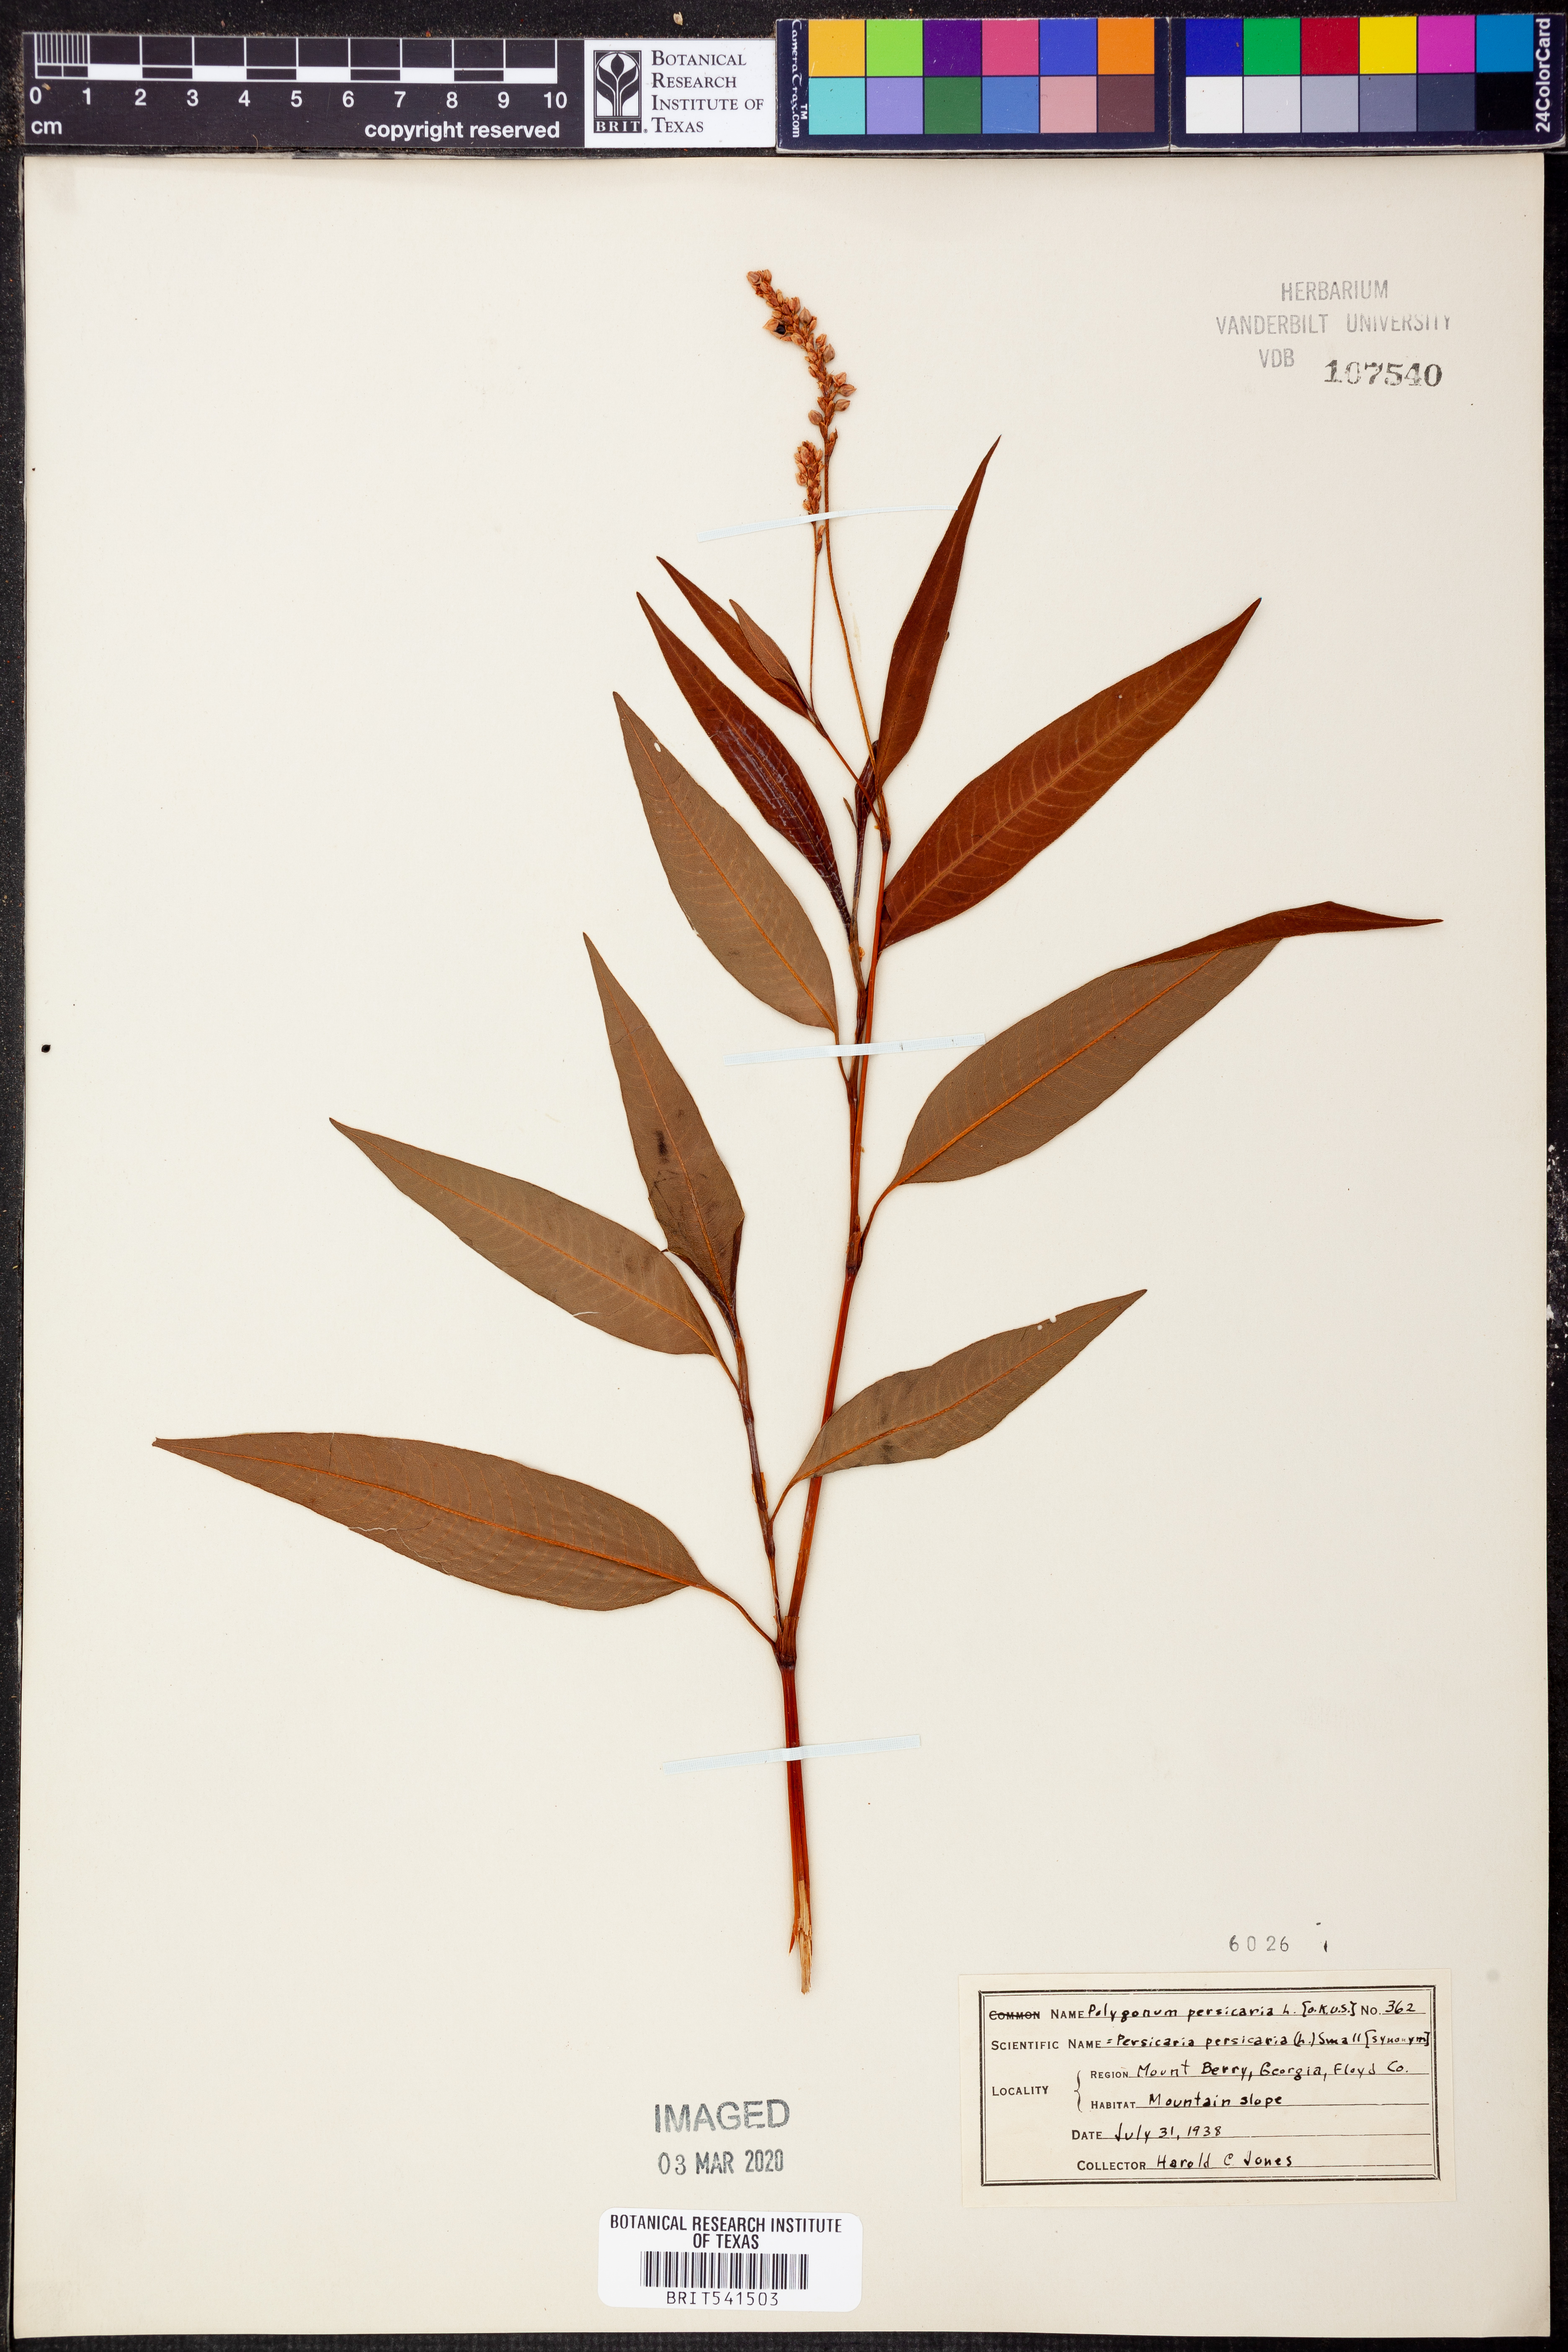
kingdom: Plantae
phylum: Tracheophyta
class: Magnoliopsida
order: Caryophyllales
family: Polygonaceae
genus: Persicaria
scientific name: Persicaria maculosa
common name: Redshank
